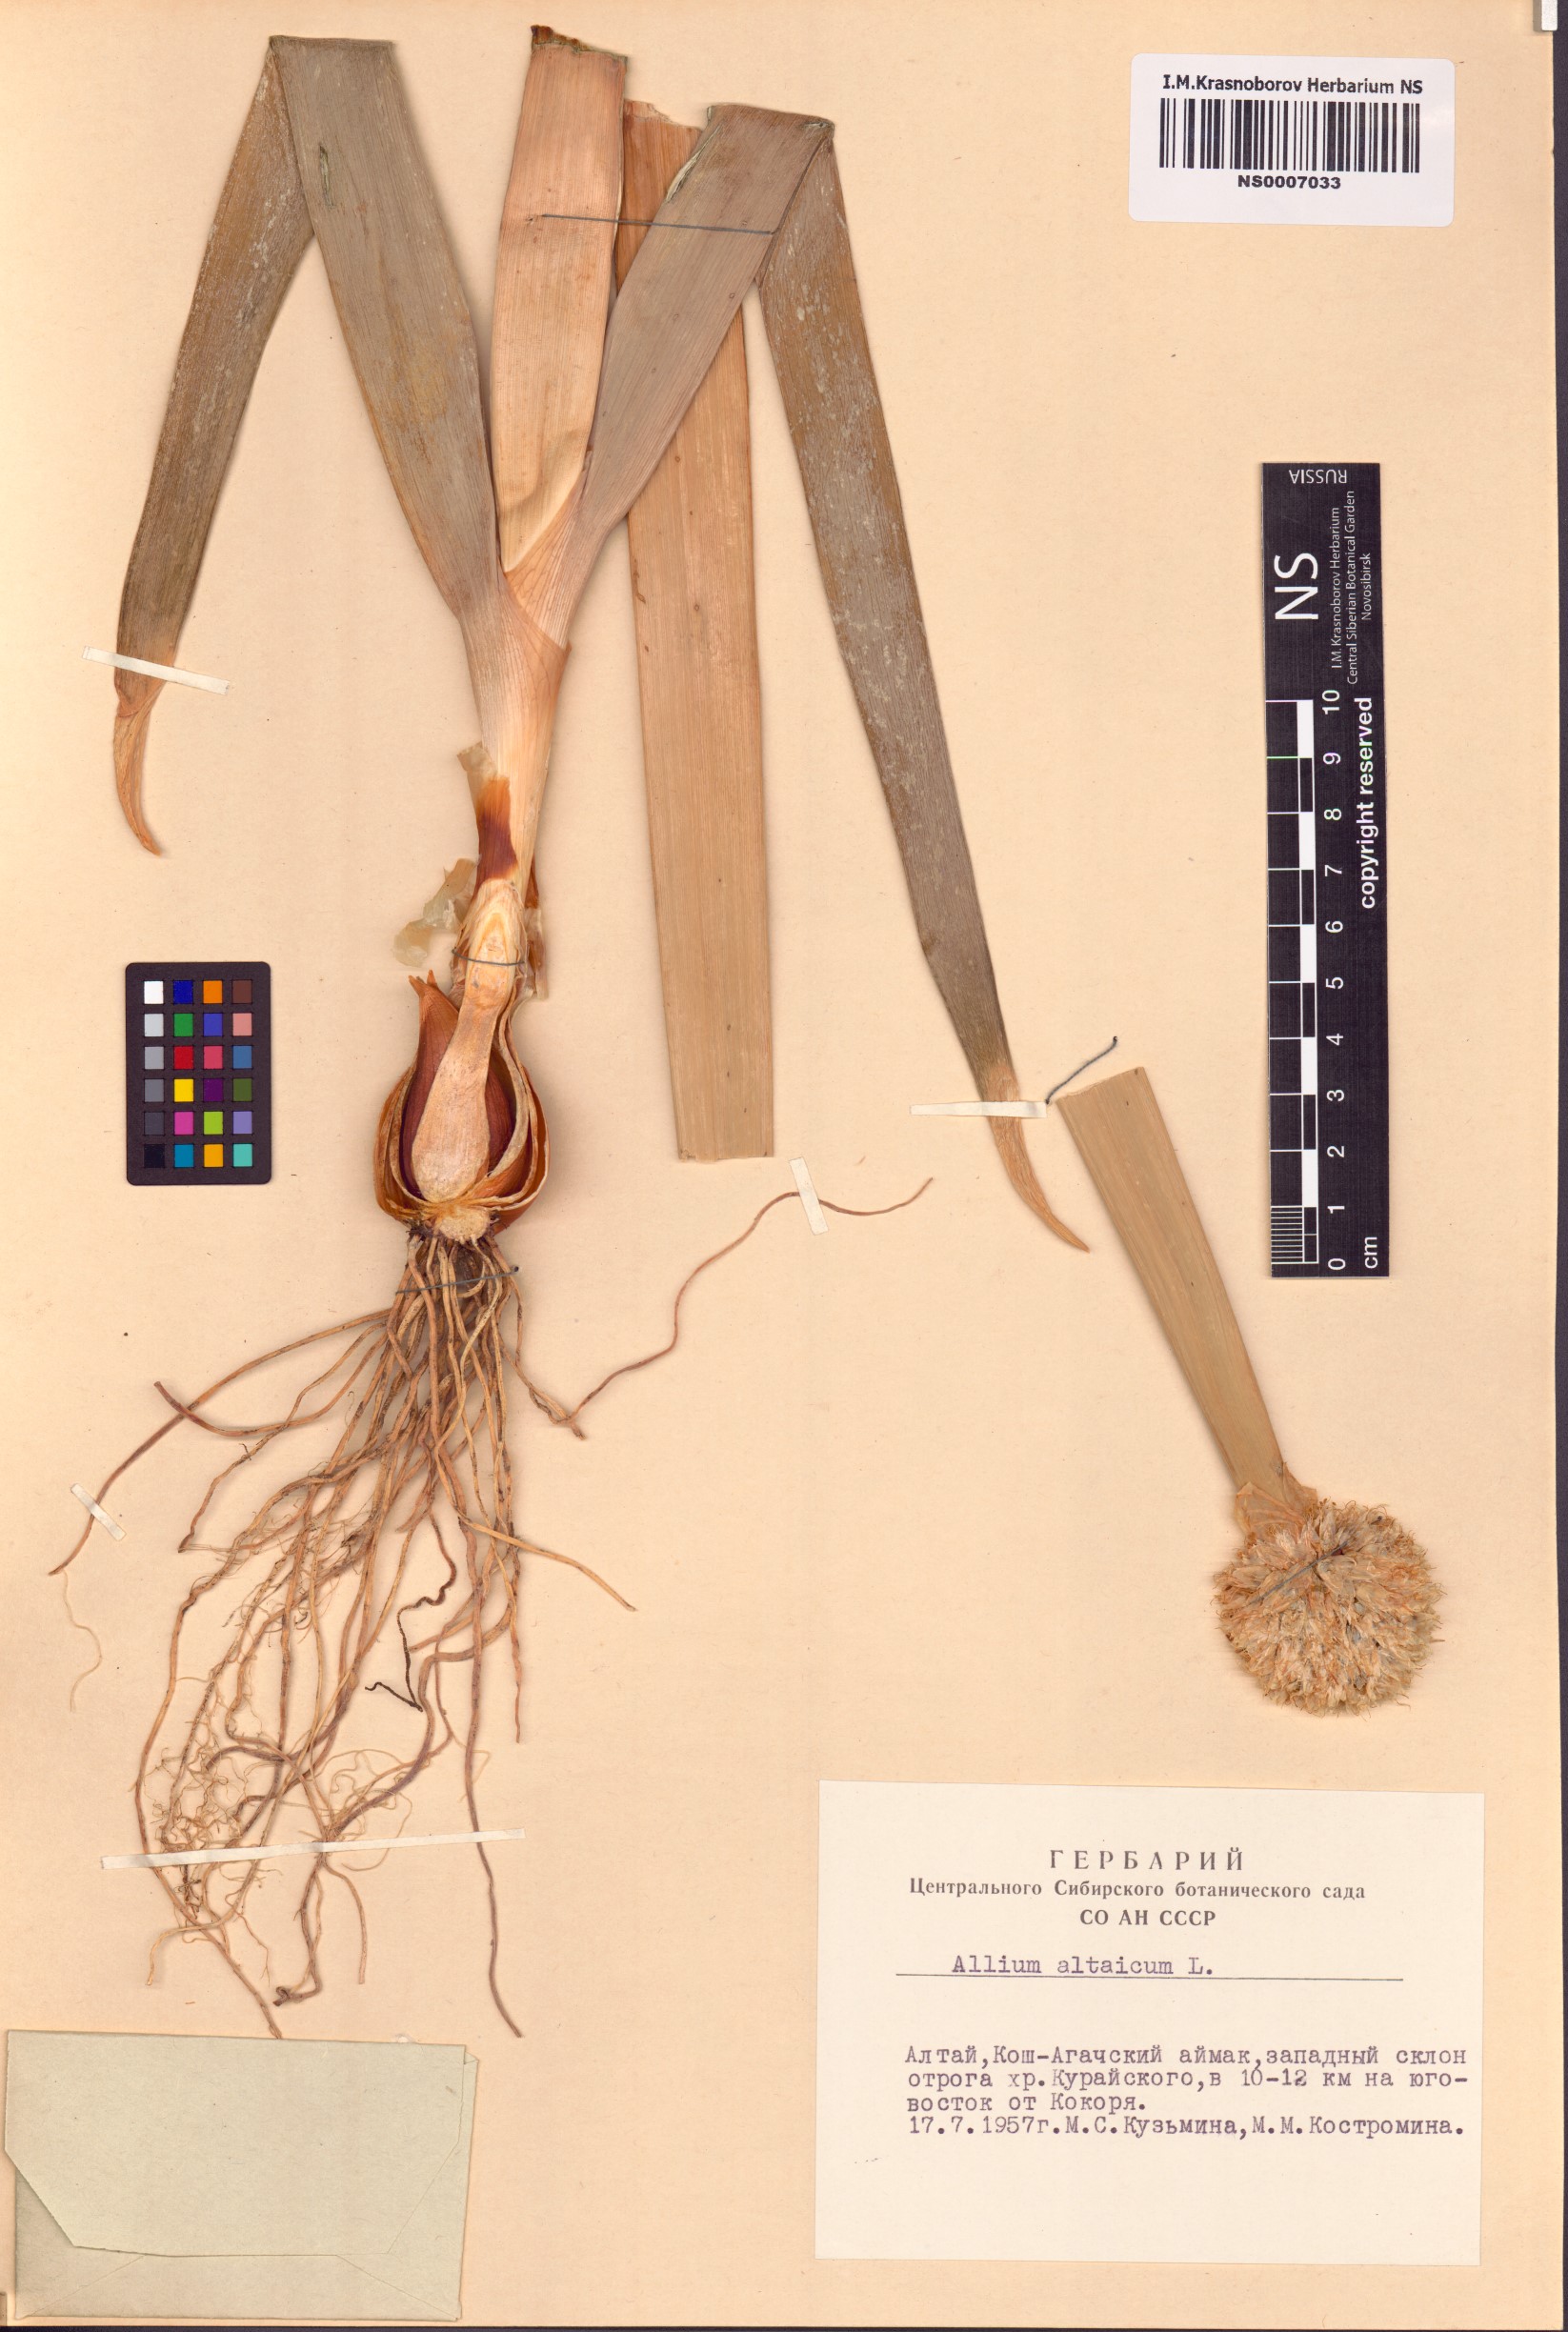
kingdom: Plantae
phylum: Tracheophyta
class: Liliopsida
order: Asparagales
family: Amaryllidaceae
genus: Allium
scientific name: Allium altaicum
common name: Altai onion
